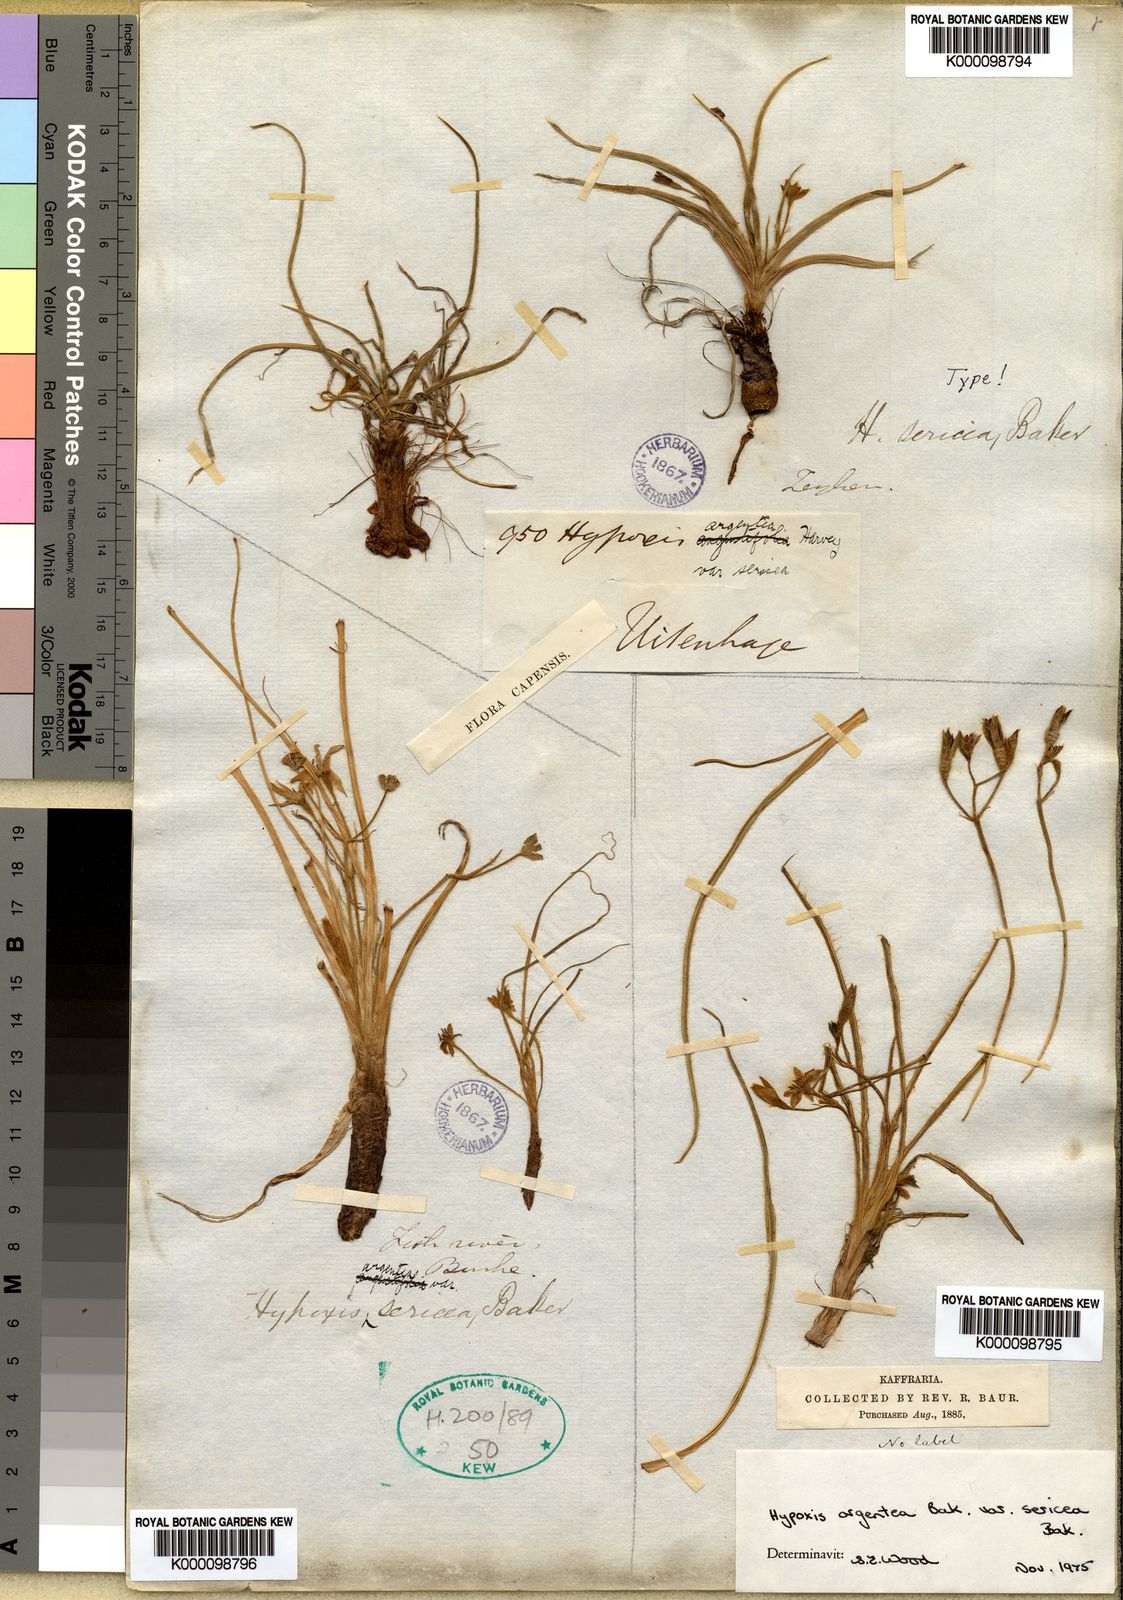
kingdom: Plantae
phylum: Tracheophyta
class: Liliopsida
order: Asparagales
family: Hypoxidaceae
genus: Hypoxis
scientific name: Hypoxis argentea
